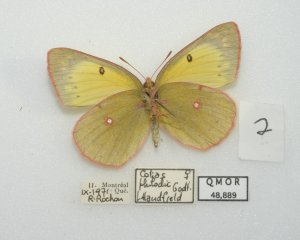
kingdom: Animalia
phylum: Arthropoda
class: Insecta
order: Lepidoptera
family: Pieridae
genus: Colias
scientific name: Colias philodice
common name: Clouded Sulphur
